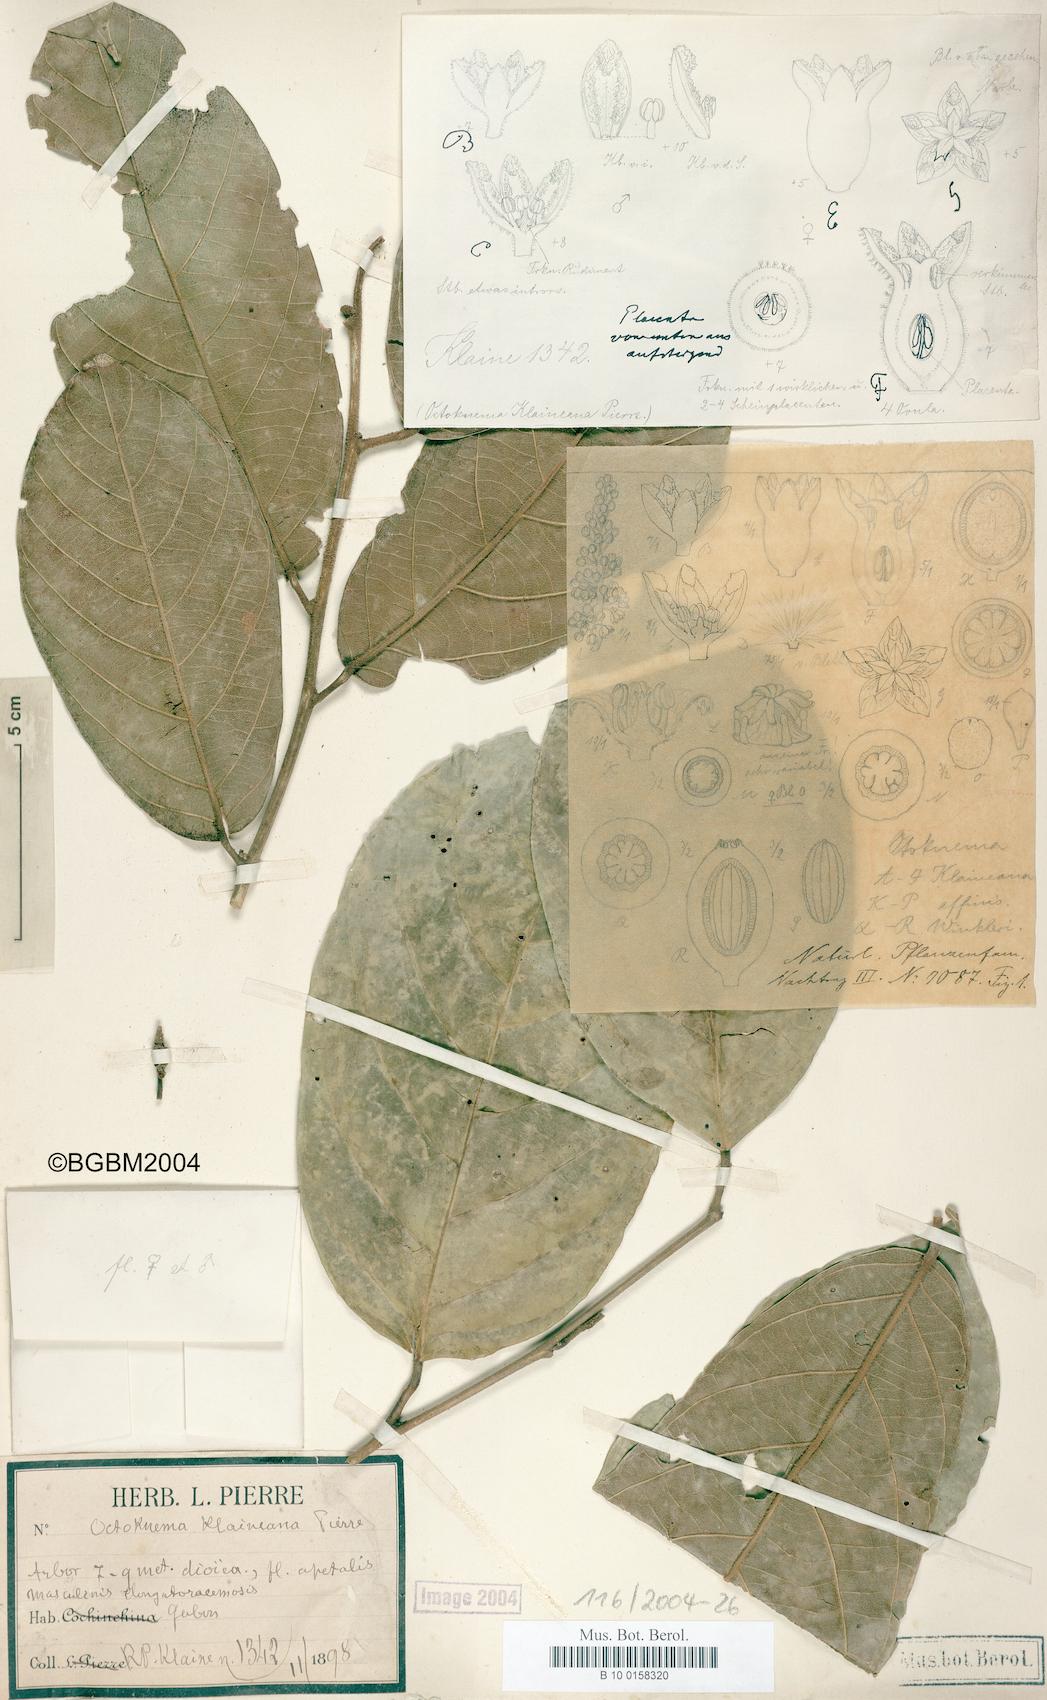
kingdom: Plantae
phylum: Tracheophyta
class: Magnoliopsida
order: Santalales
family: Octoknemaceae
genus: Octoknema
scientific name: Octoknema klaineana
